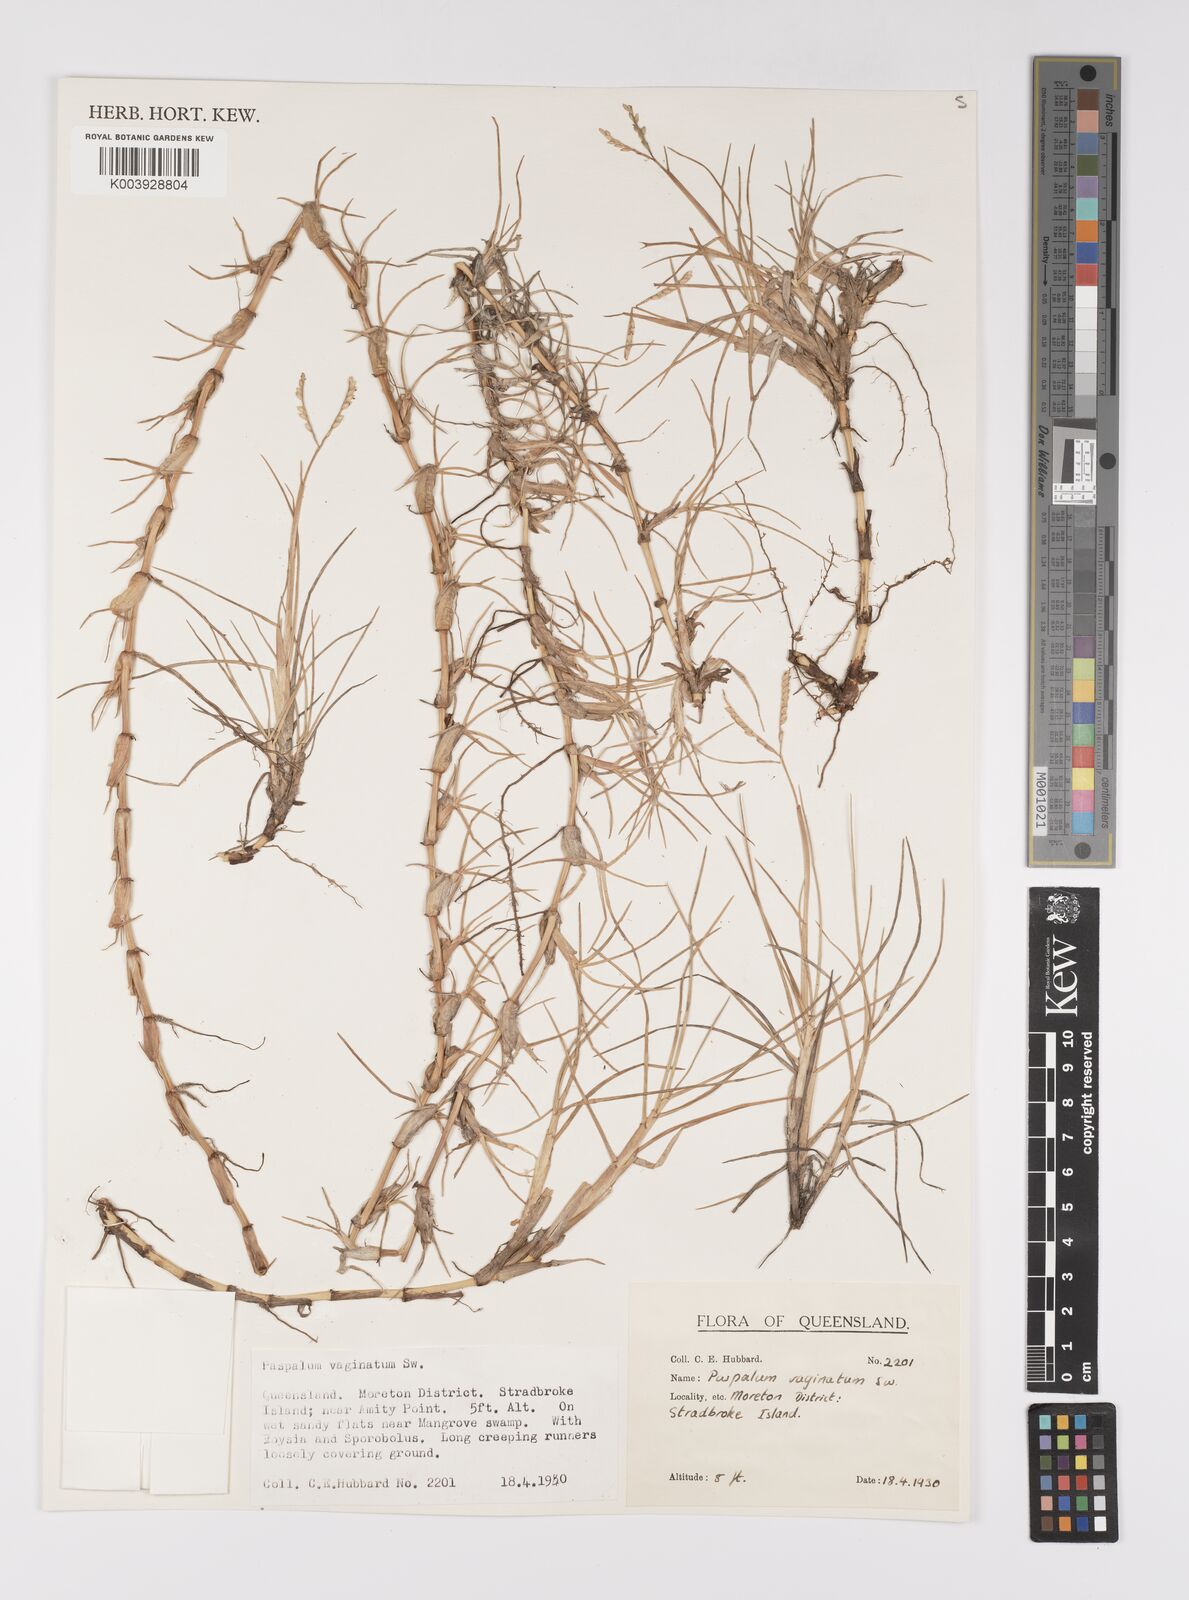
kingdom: Plantae
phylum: Tracheophyta
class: Liliopsida
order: Poales
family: Poaceae
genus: Paspalum
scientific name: Paspalum vaginatum
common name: Seashore paspalum
